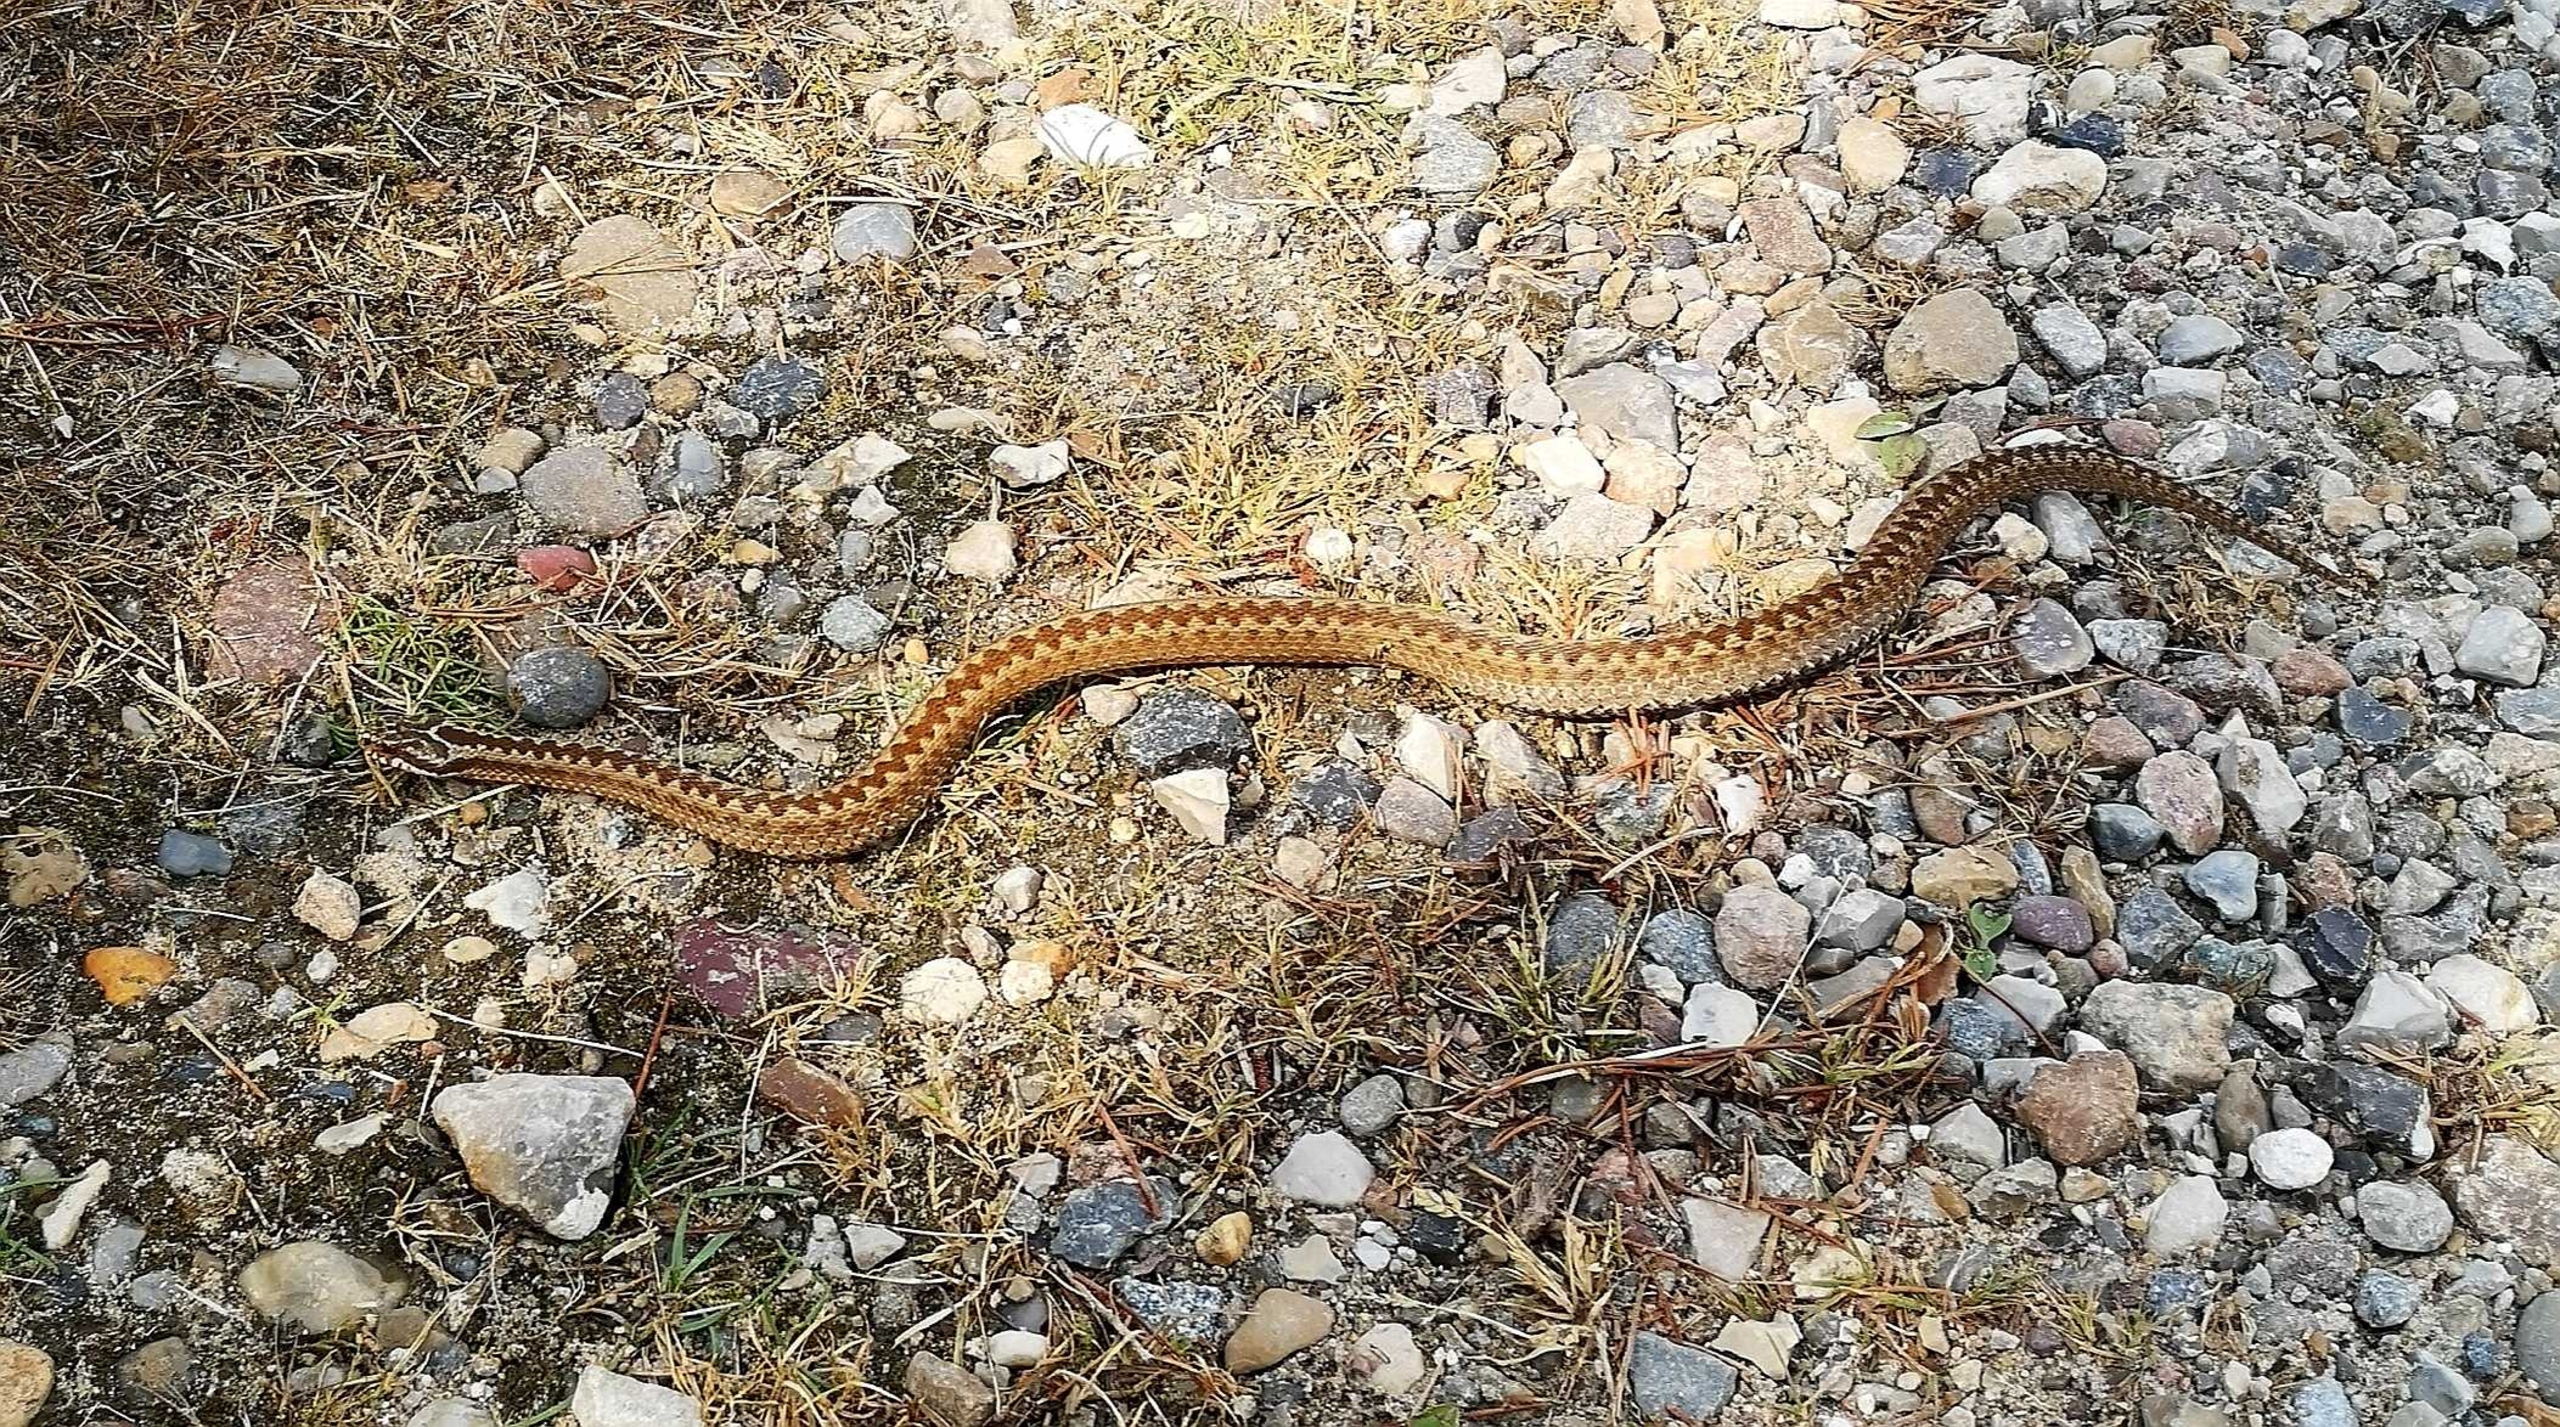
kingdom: Animalia
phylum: Chordata
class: Squamata
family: Viperidae
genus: Vipera
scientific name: Vipera berus
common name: Hugorm
